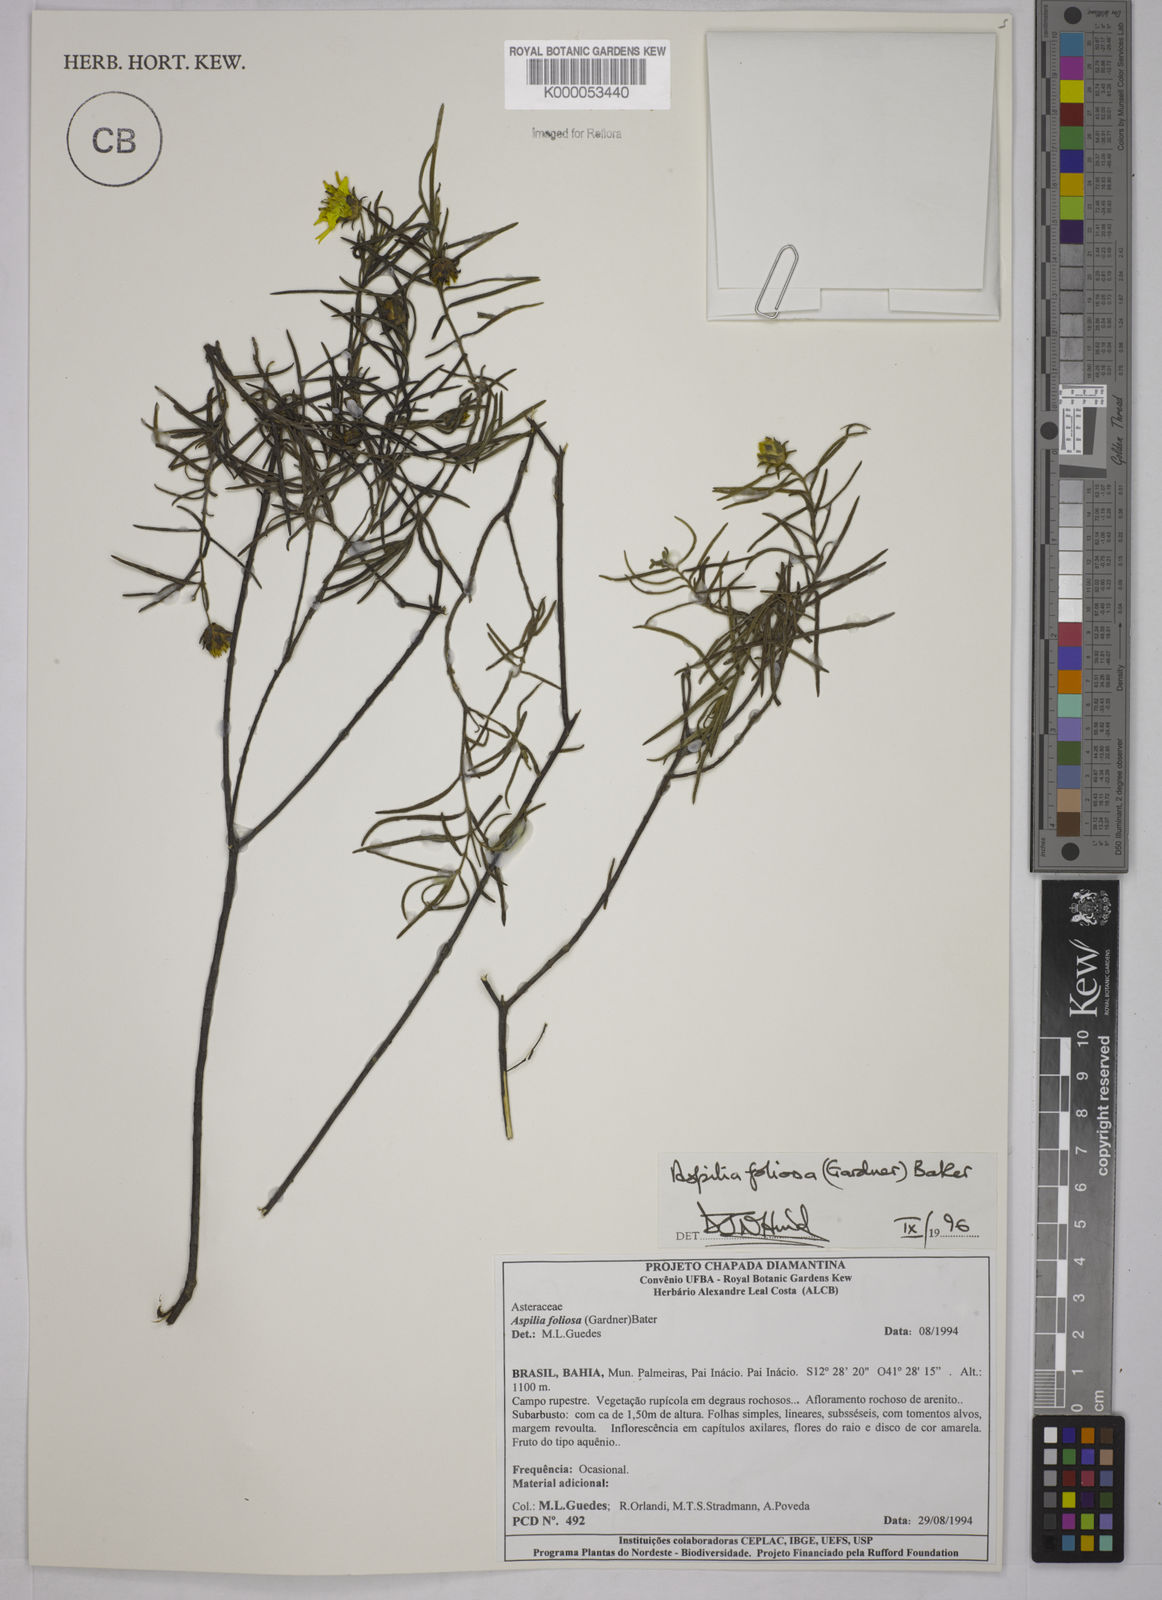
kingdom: Plantae
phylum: Tracheophyta
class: Magnoliopsida
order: Asterales
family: Asteraceae
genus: Aspilia
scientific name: Aspilia
